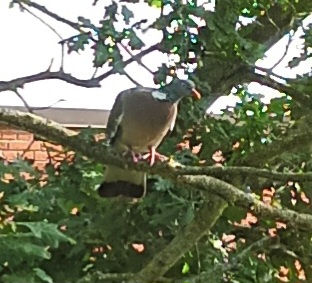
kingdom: Animalia
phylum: Chordata
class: Aves
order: Columbiformes
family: Columbidae
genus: Columba
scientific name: Columba palumbus
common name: Ringdue
